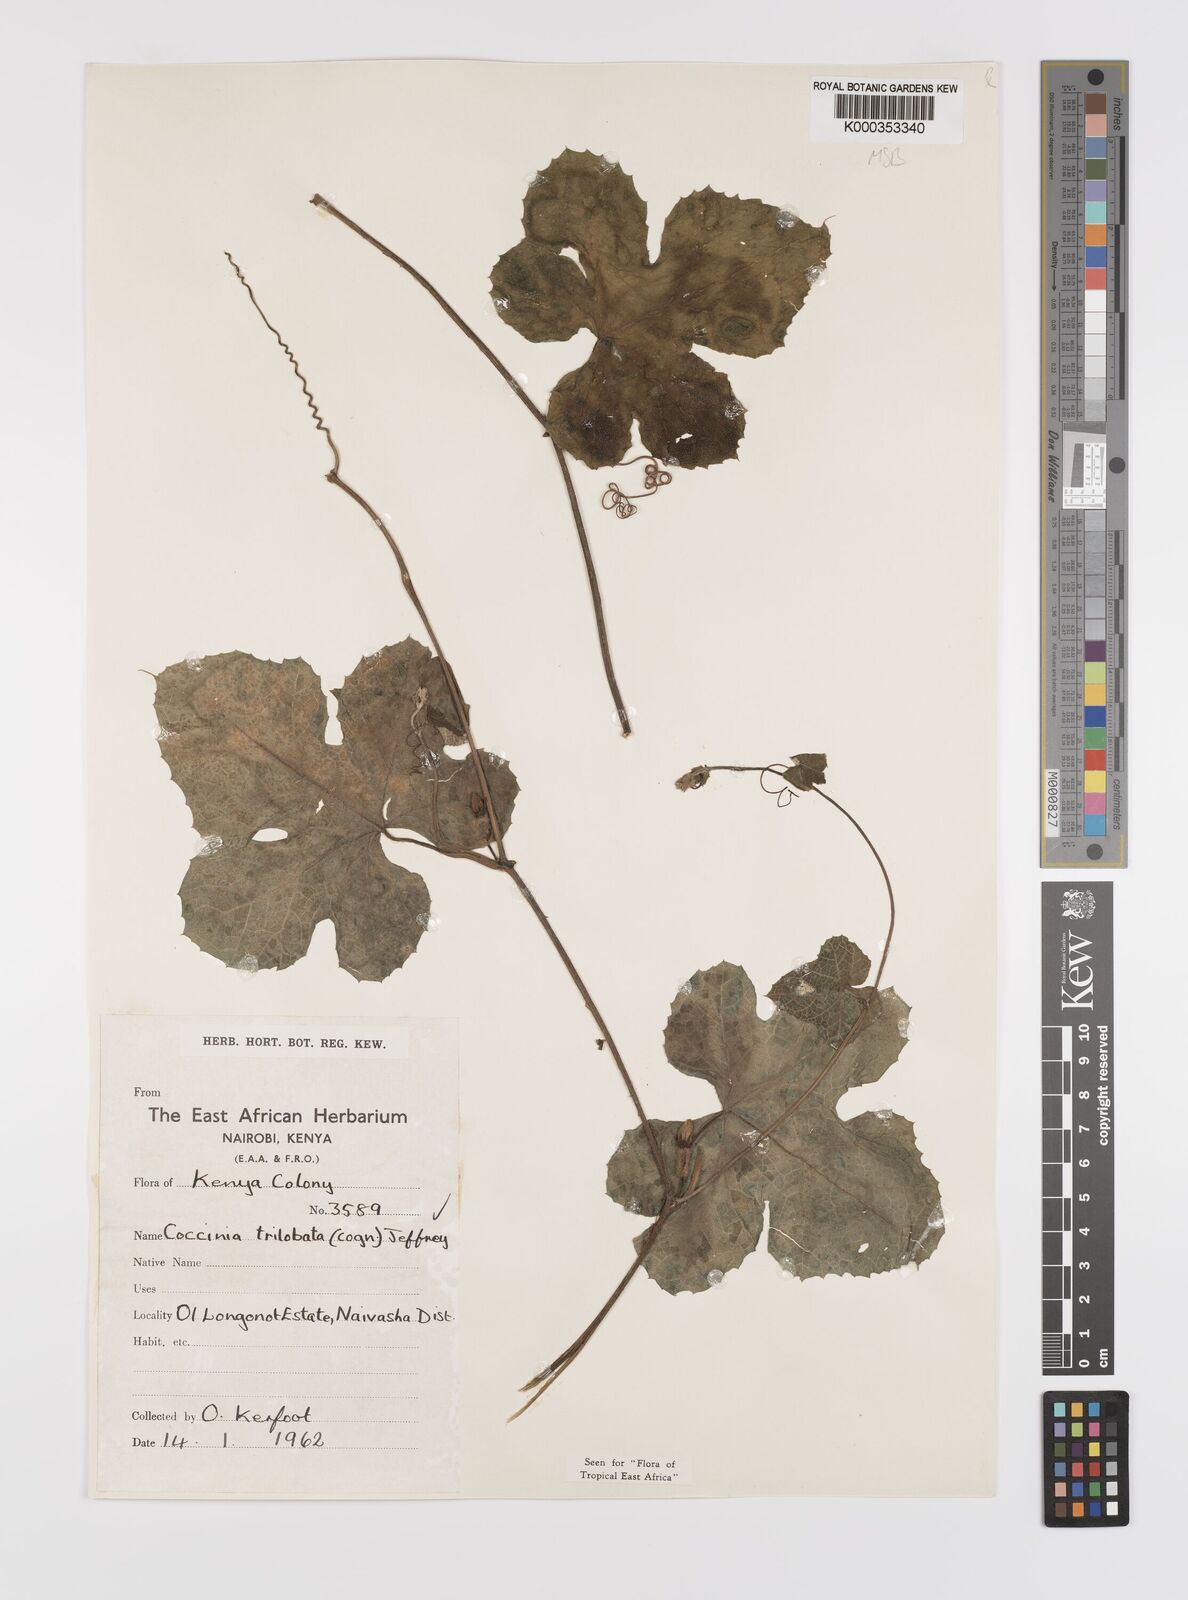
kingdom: Plantae
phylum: Tracheophyta
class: Magnoliopsida
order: Cucurbitales
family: Cucurbitaceae
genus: Coccinia
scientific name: Coccinia trilobata
